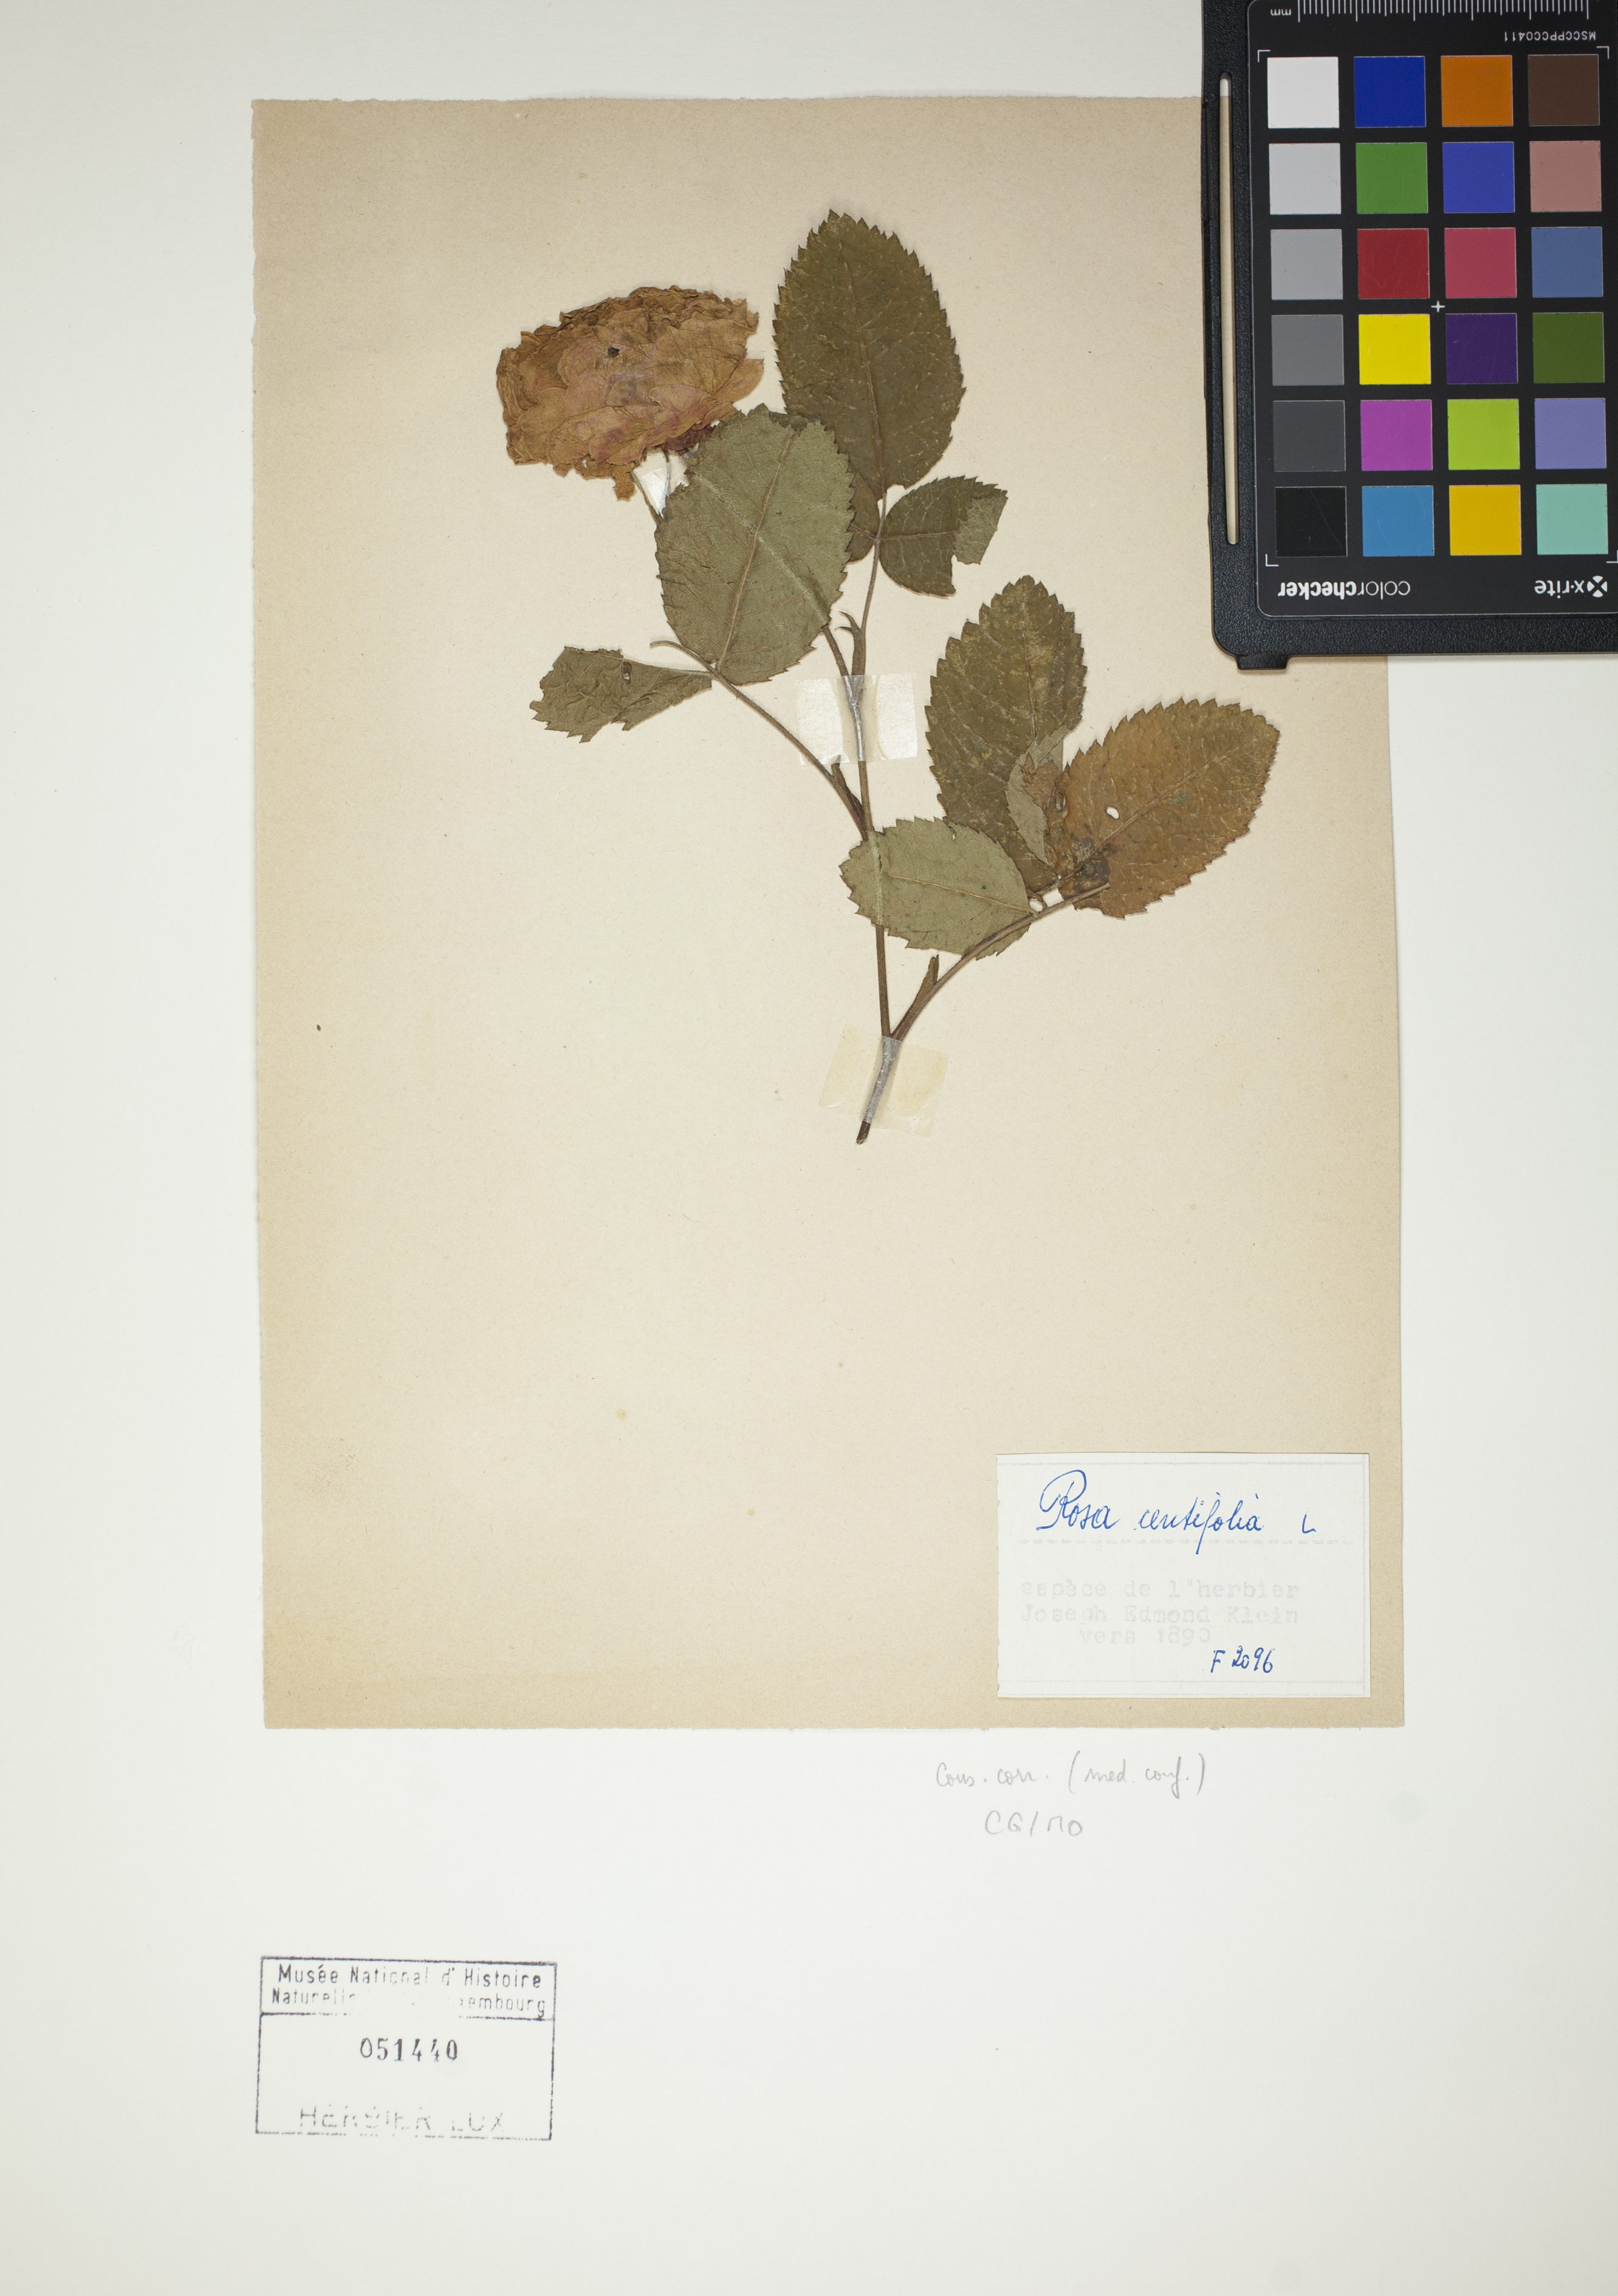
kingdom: Plantae
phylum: Tracheophyta
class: Magnoliopsida
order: Rosales
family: Rosaceae
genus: Rosa
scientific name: Rosa centifolia
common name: Cabbage rose
